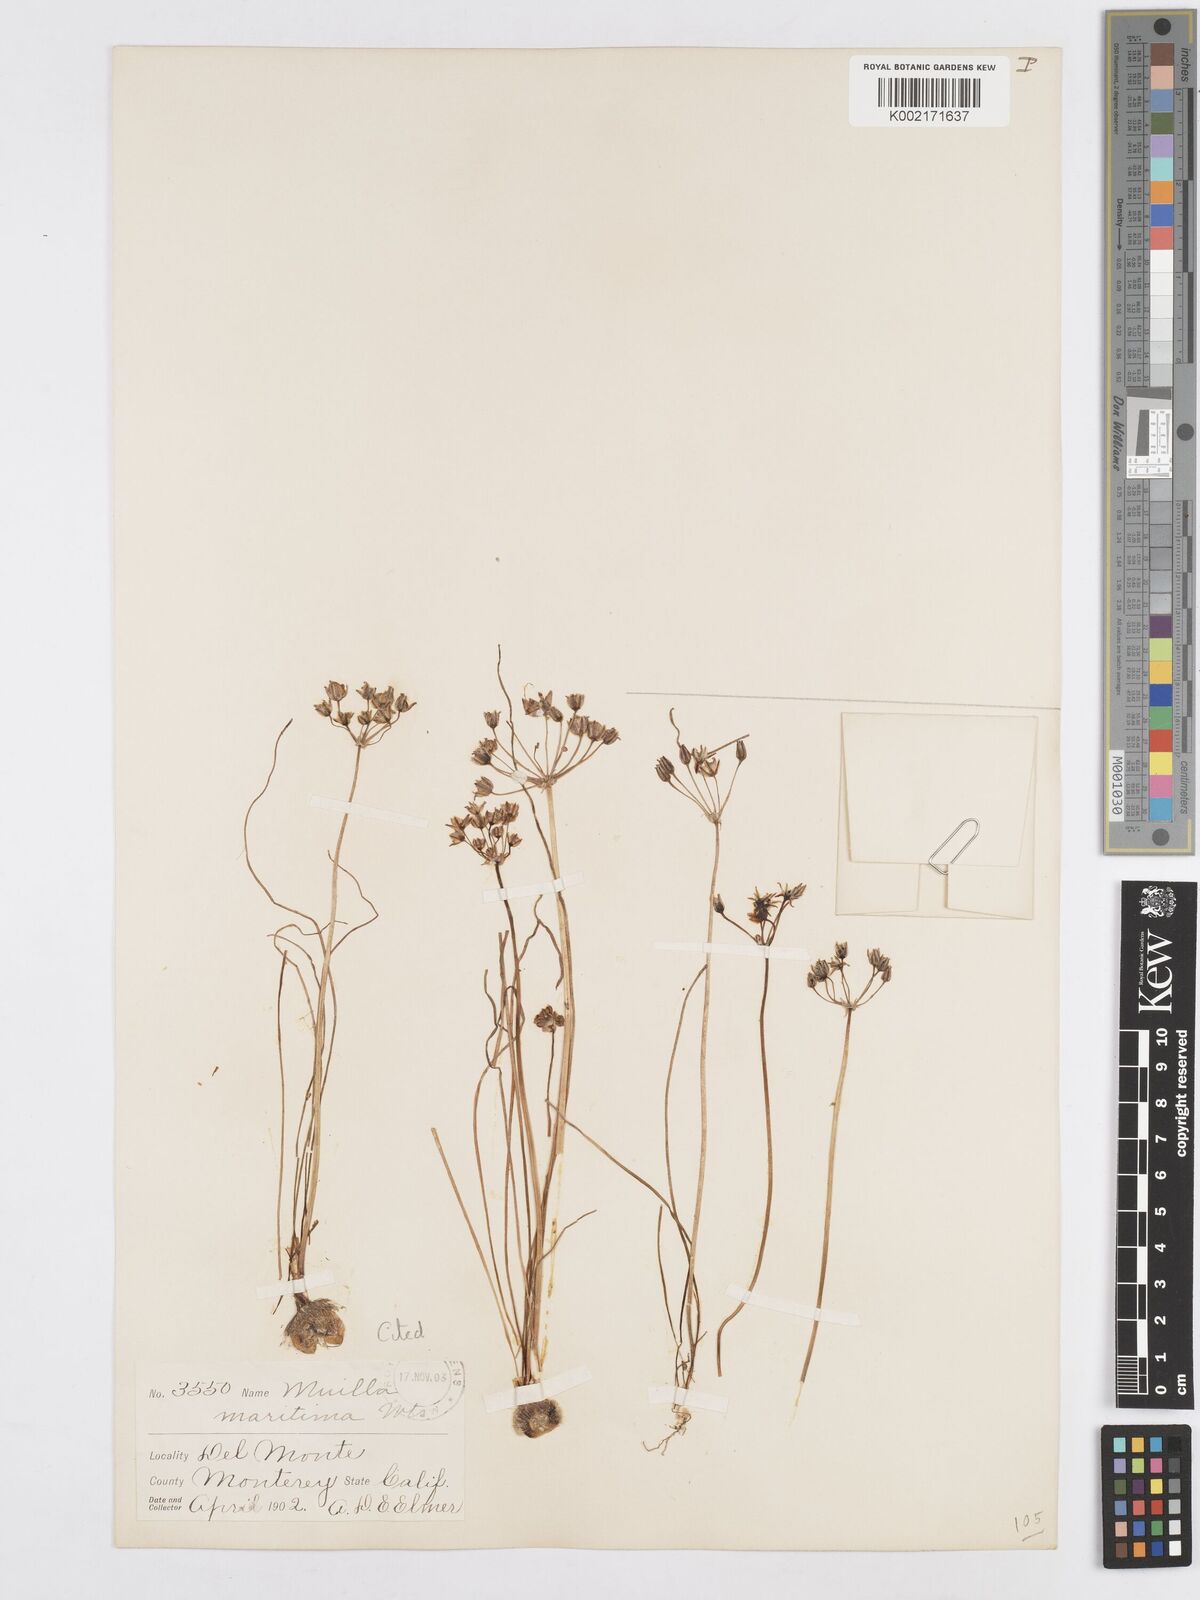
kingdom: Plantae
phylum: Tracheophyta
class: Liliopsida
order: Asparagales
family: Asparagaceae
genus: Muilla
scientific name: Muilla maritima
